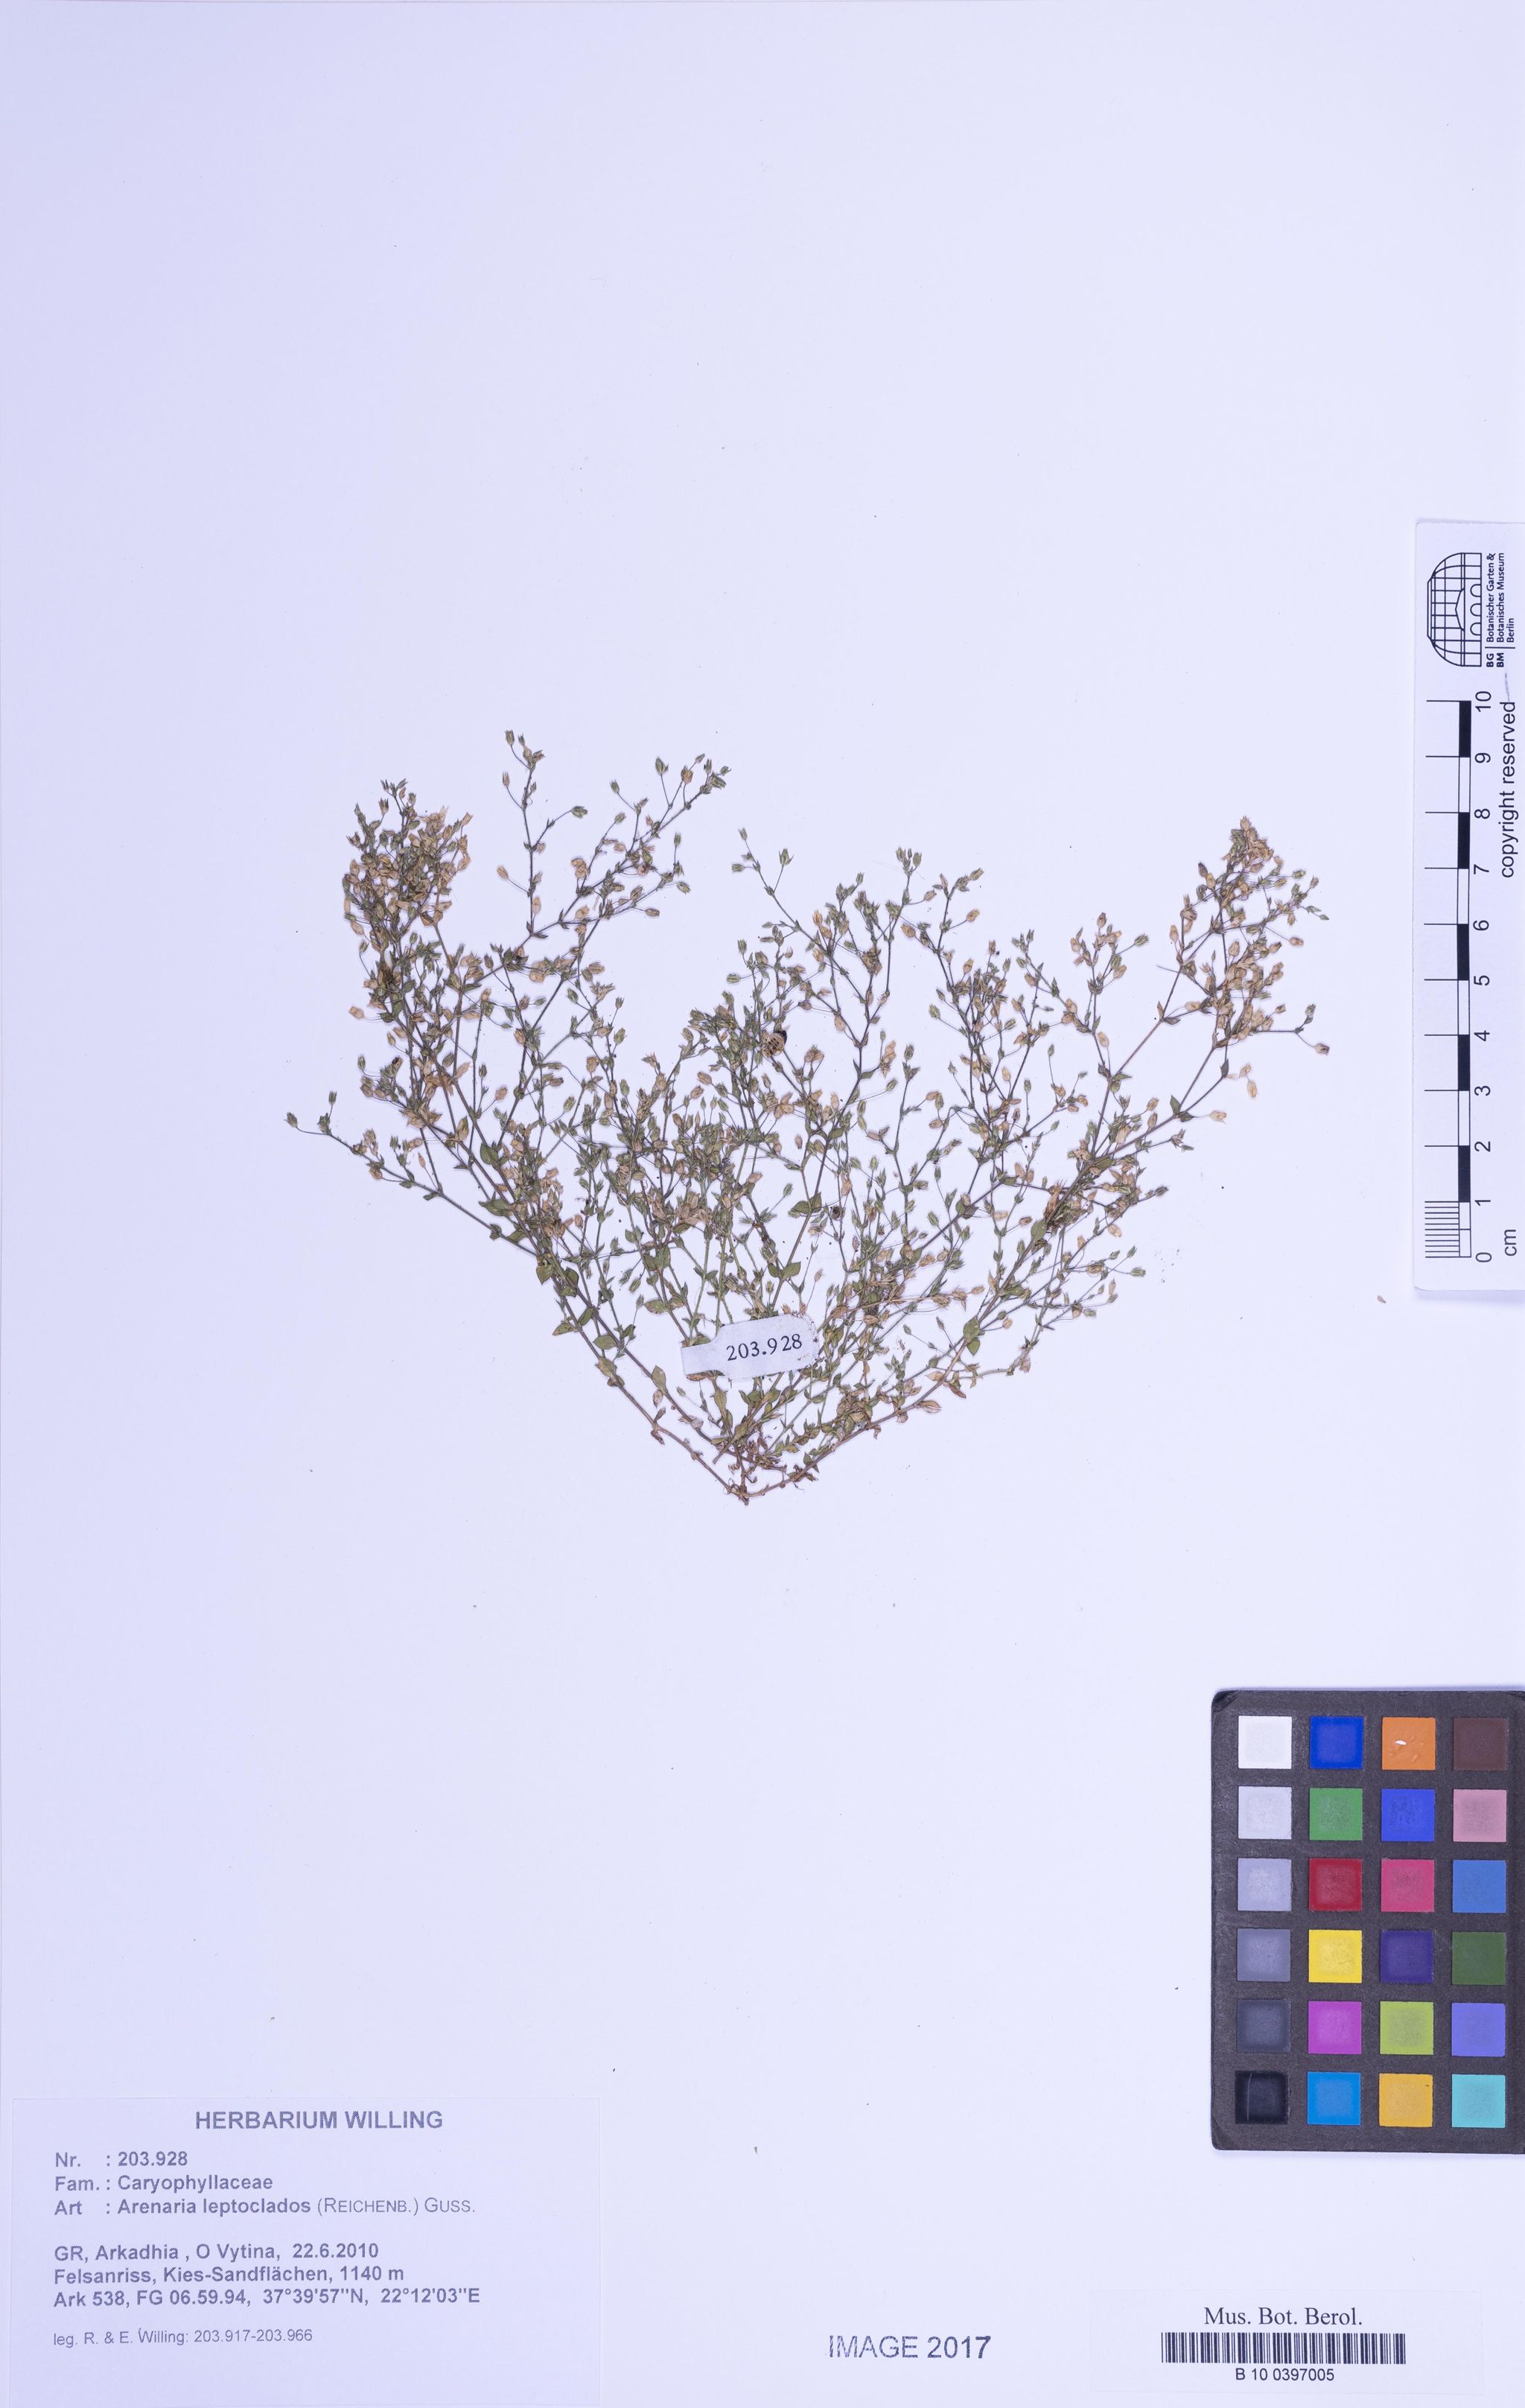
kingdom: Plantae
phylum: Tracheophyta
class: Magnoliopsida
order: Caryophyllales
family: Caryophyllaceae
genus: Arenaria
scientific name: Arenaria leptoclados
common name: Thyme-leaved sandwort
